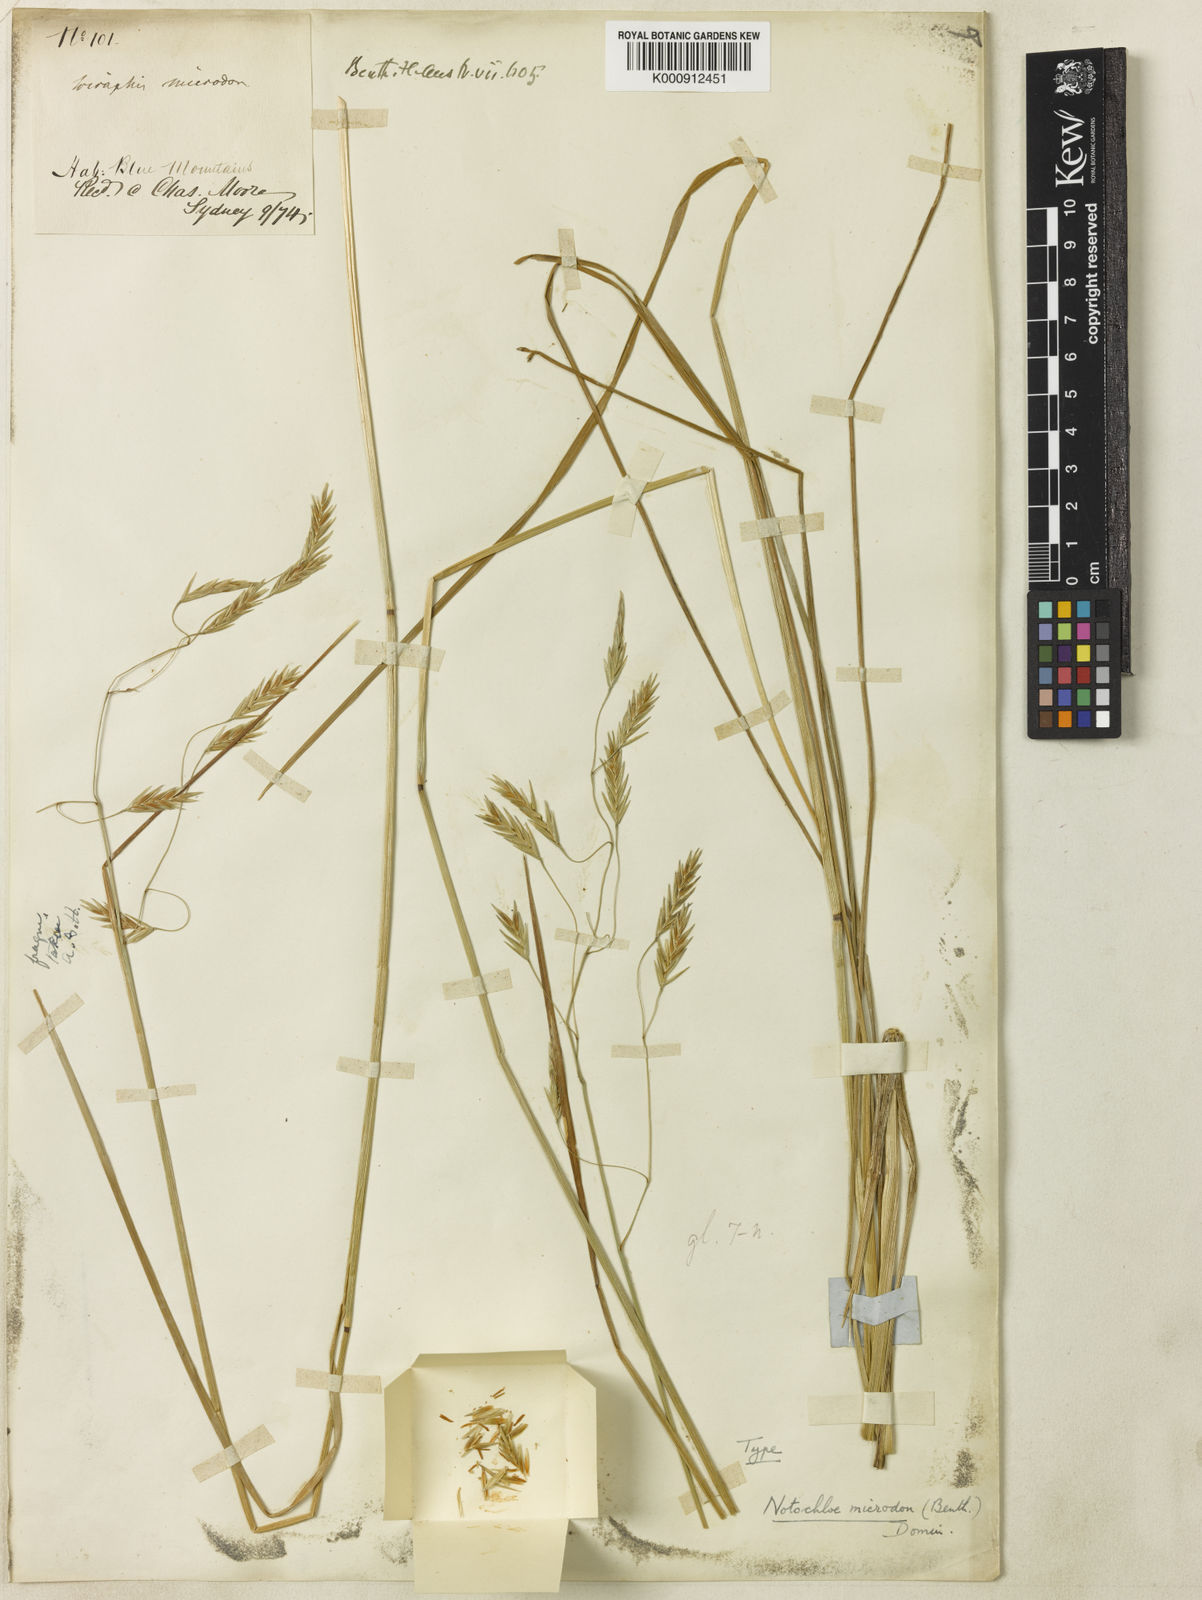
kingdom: Plantae
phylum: Tracheophyta
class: Liliopsida
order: Poales
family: Poaceae
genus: Notochloe
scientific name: Notochloe microdon
